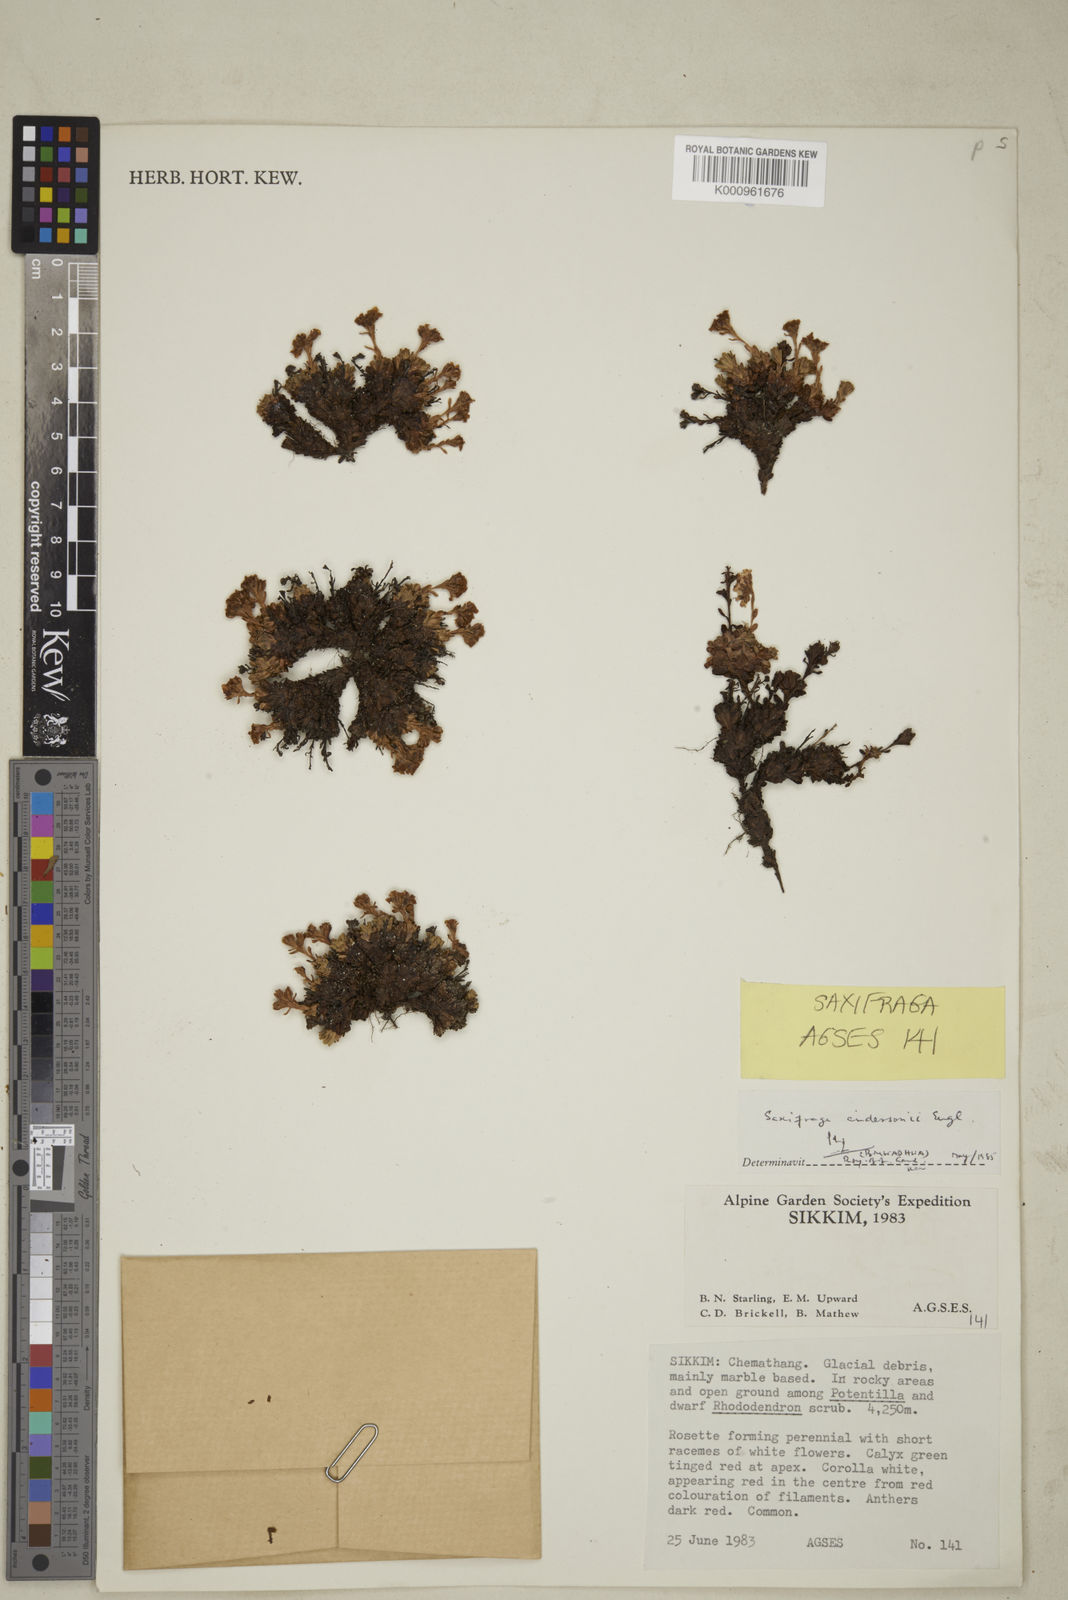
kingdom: Plantae
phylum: Tracheophyta
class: Magnoliopsida
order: Saxifragales
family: Saxifragaceae
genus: Saxifraga
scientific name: Saxifraga andersonii
